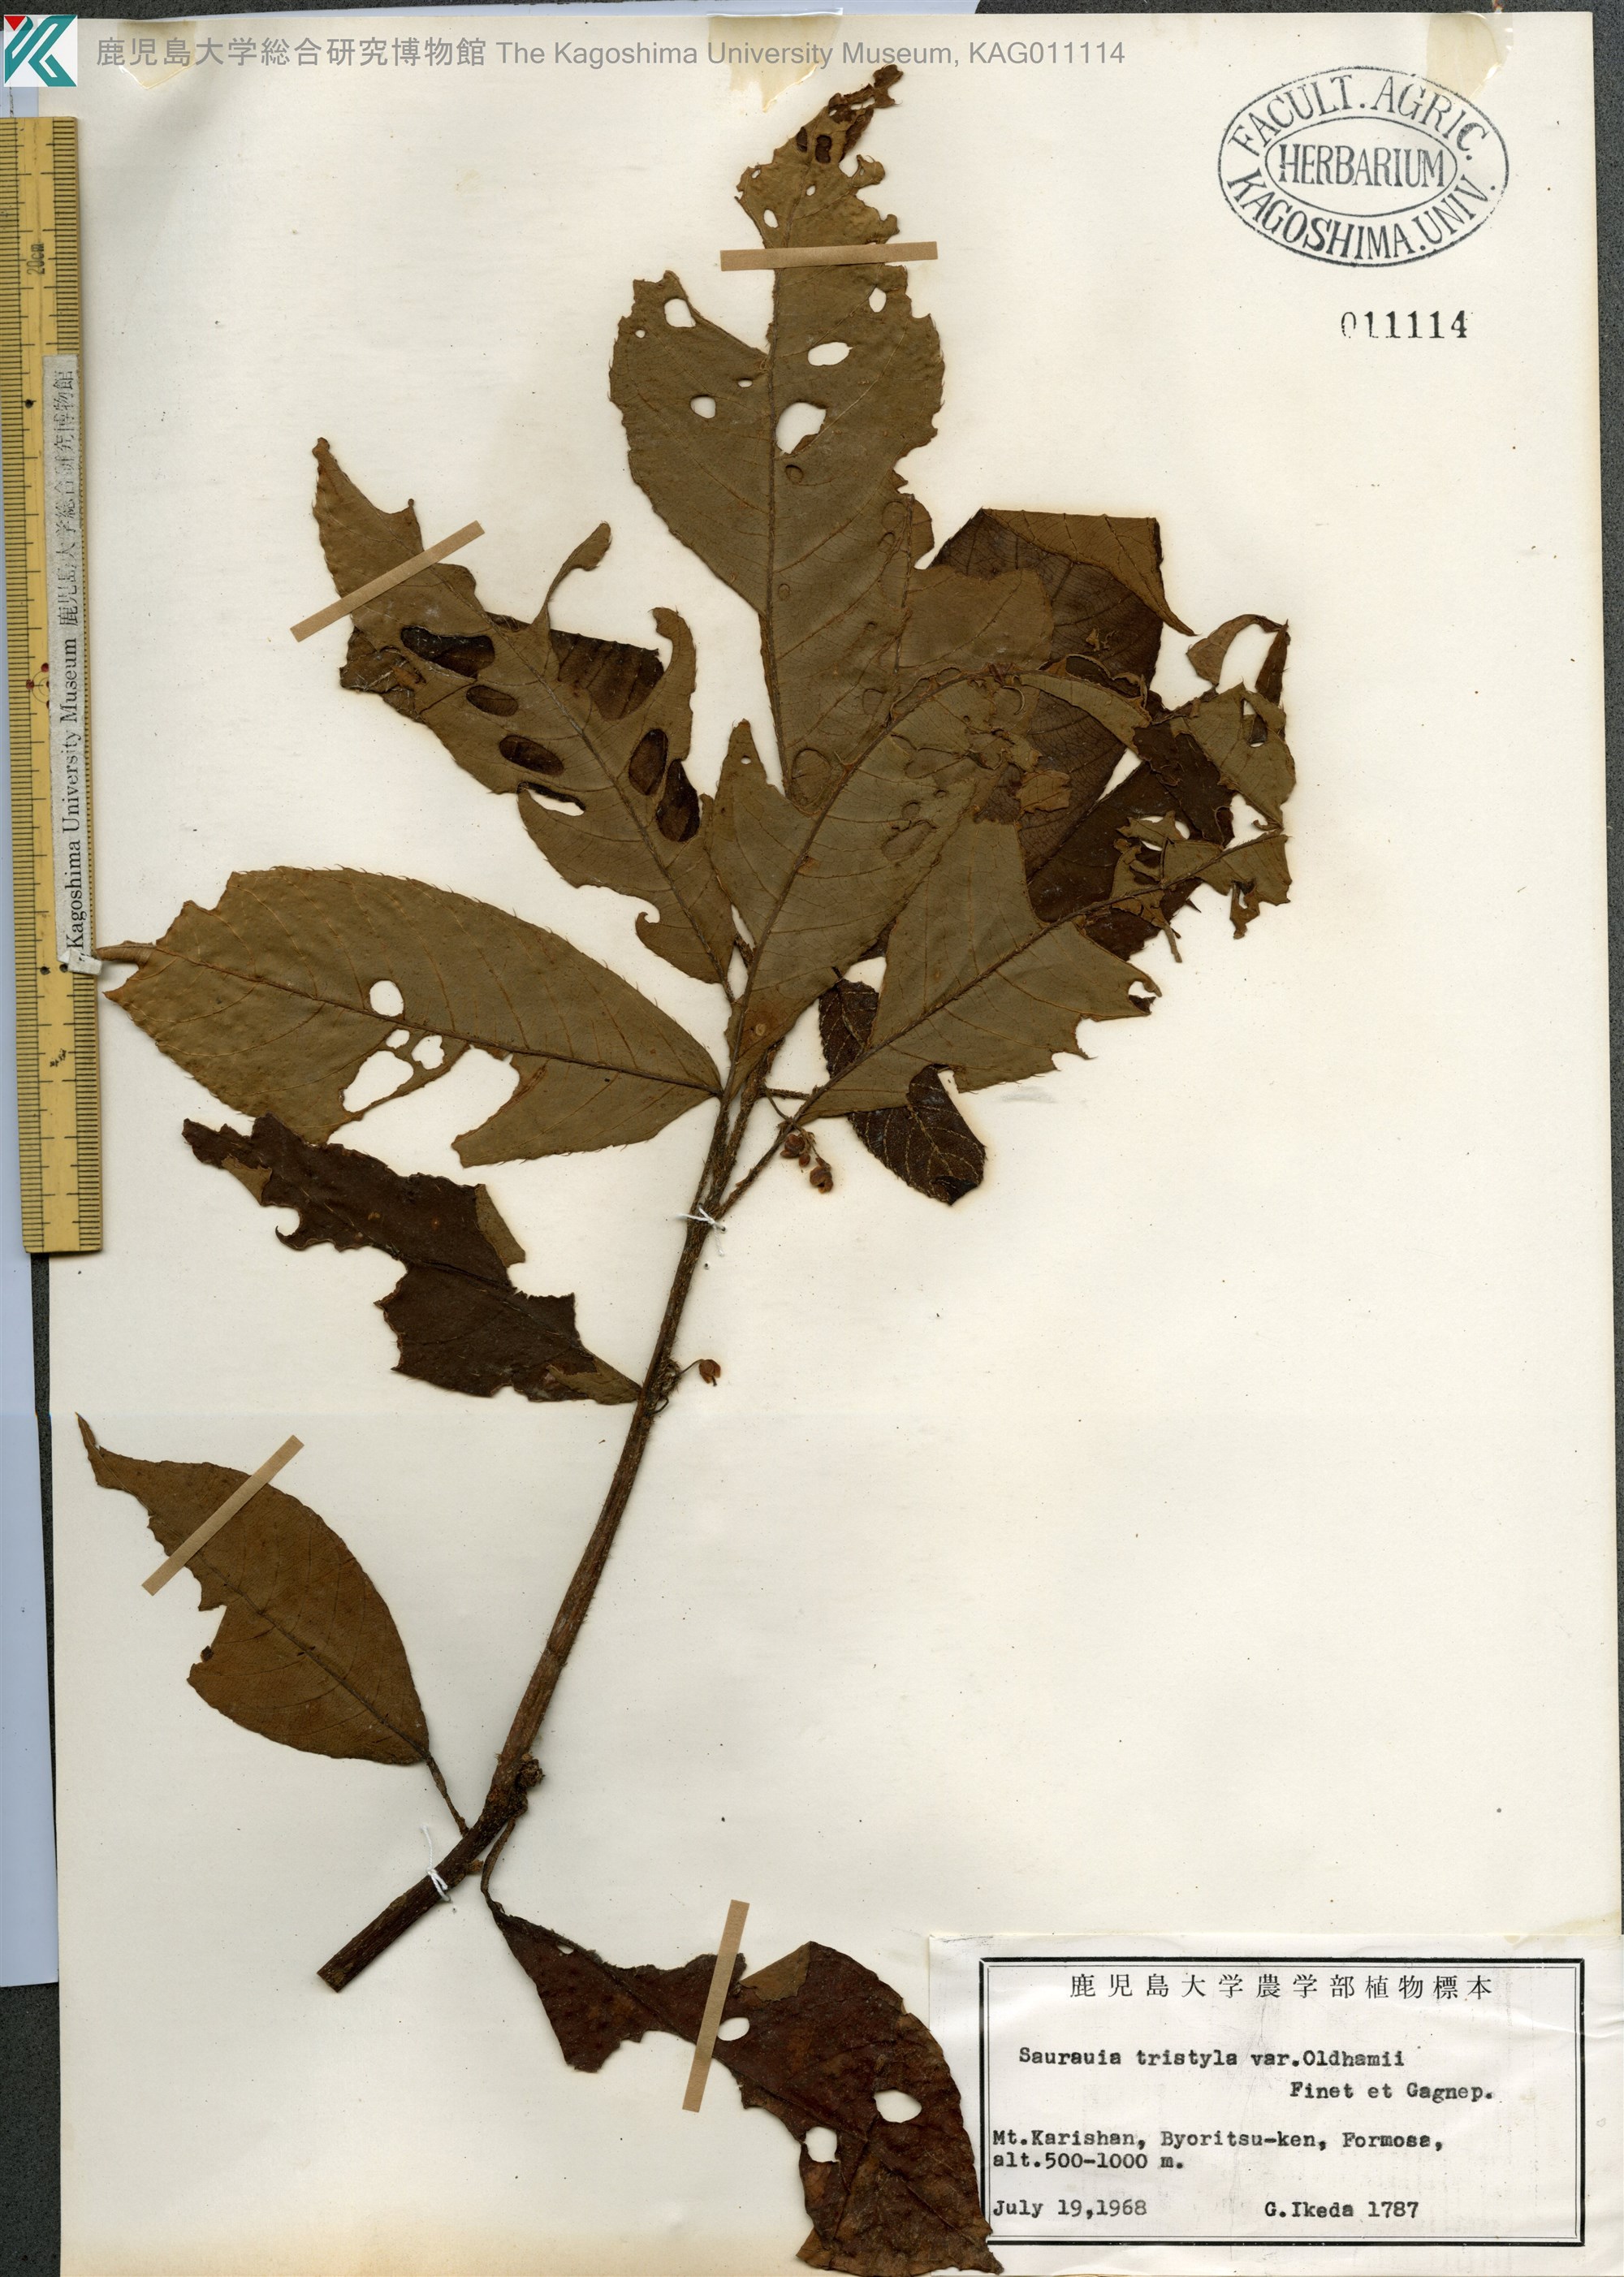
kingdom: Plantae
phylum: Tracheophyta
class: Magnoliopsida
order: Ericales
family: Actinidiaceae
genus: Saurauia
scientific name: Saurauia tristyla
